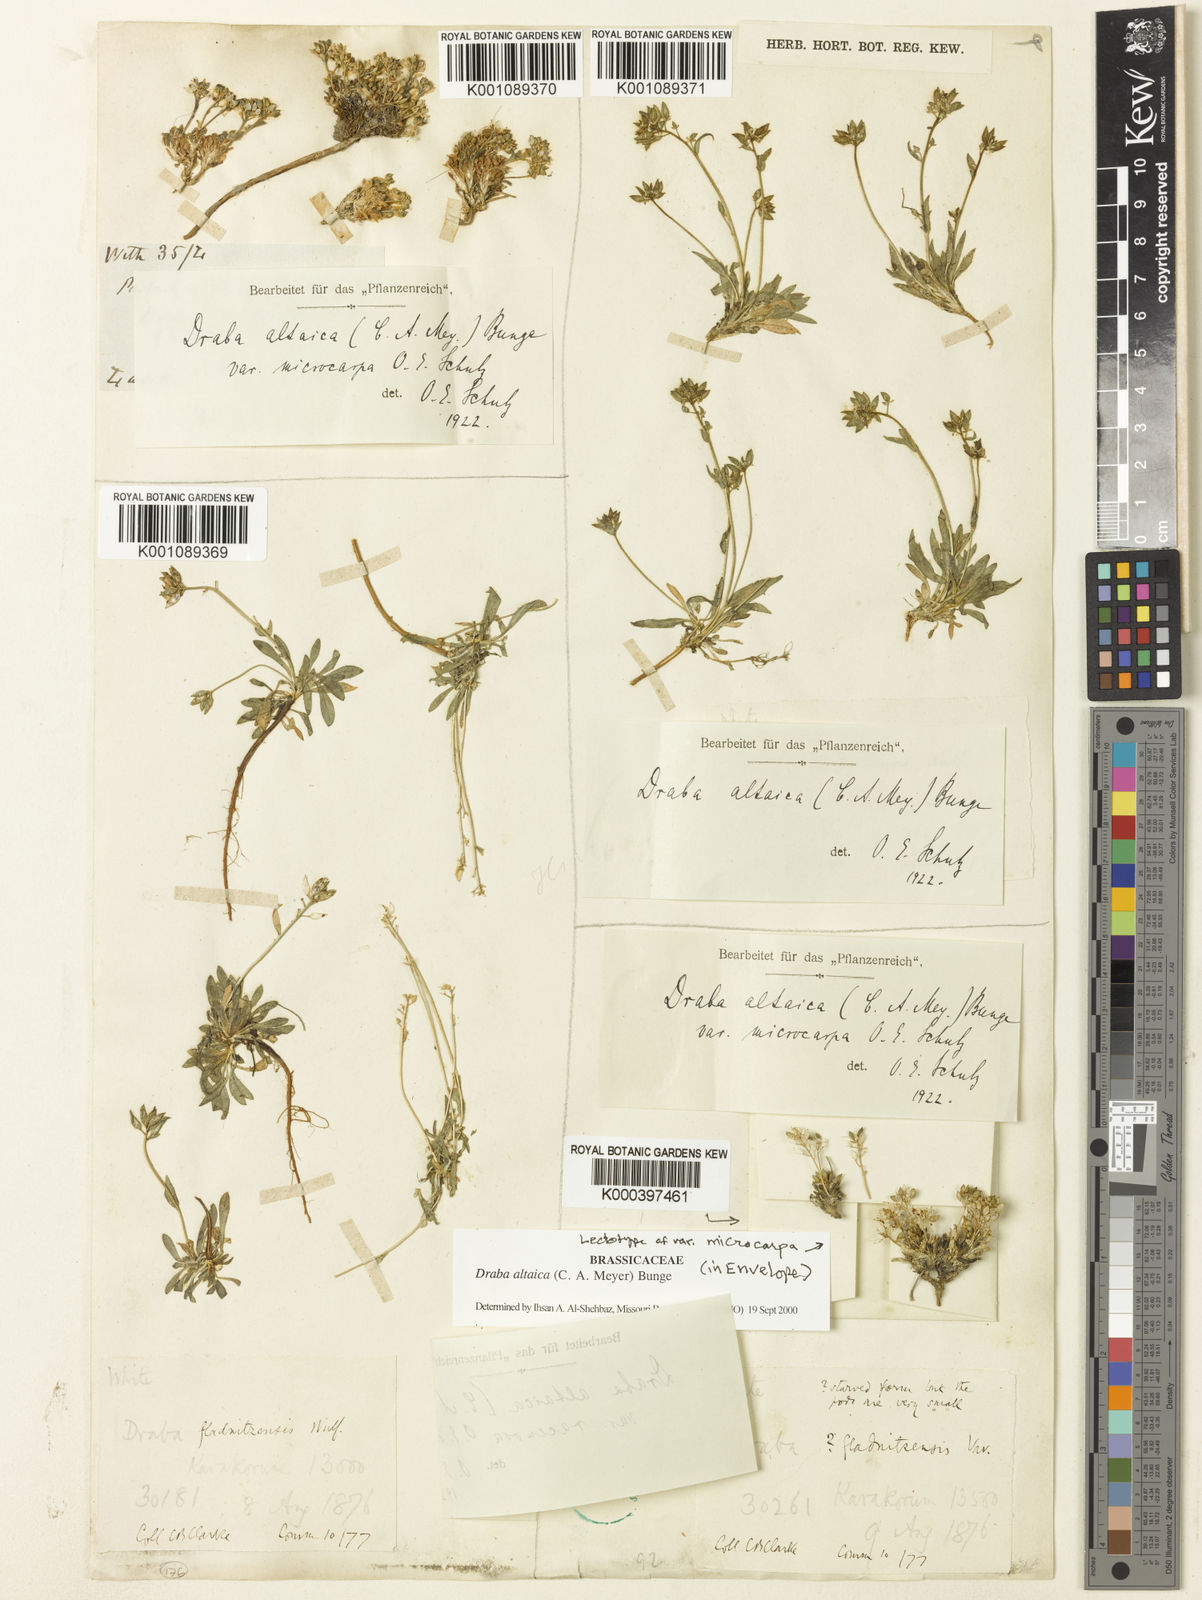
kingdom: Plantae
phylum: Tracheophyta
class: Magnoliopsida
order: Brassicales
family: Brassicaceae
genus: Draba
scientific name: Draba altaica
